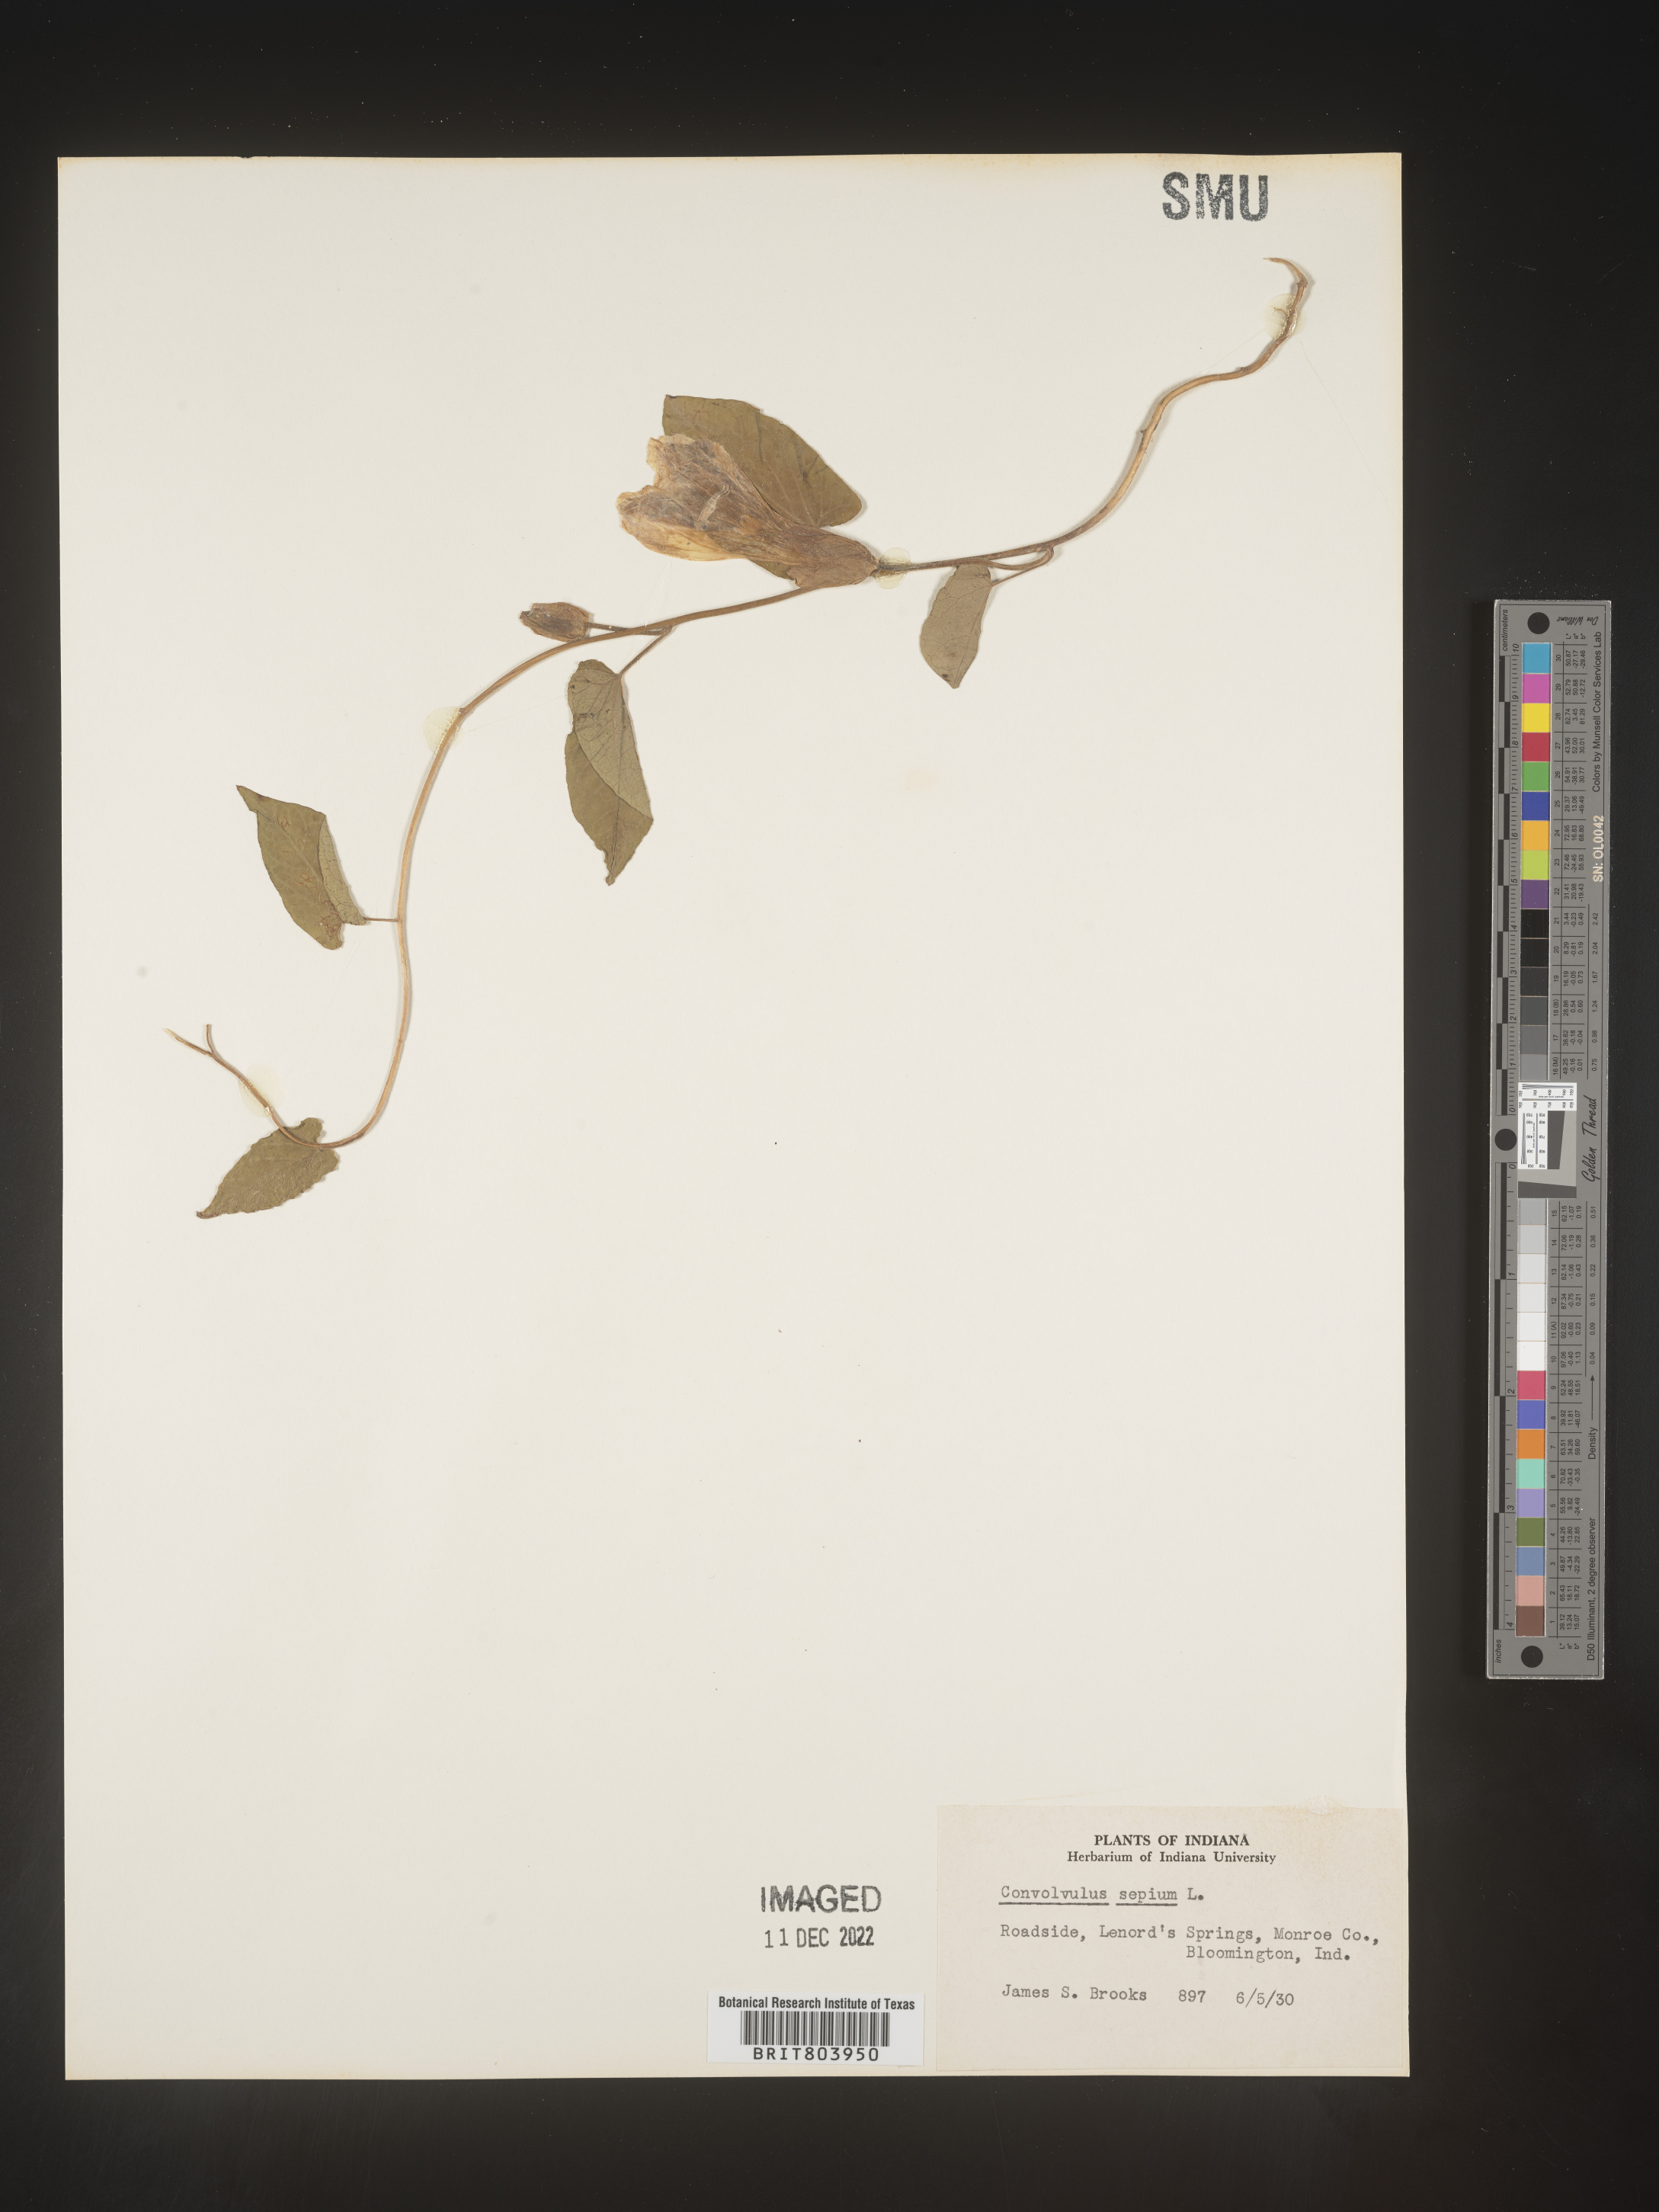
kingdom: Plantae
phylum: Tracheophyta
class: Magnoliopsida
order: Solanales
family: Convolvulaceae
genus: Calystegia
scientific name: Calystegia sepium
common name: Hedge bindweed
